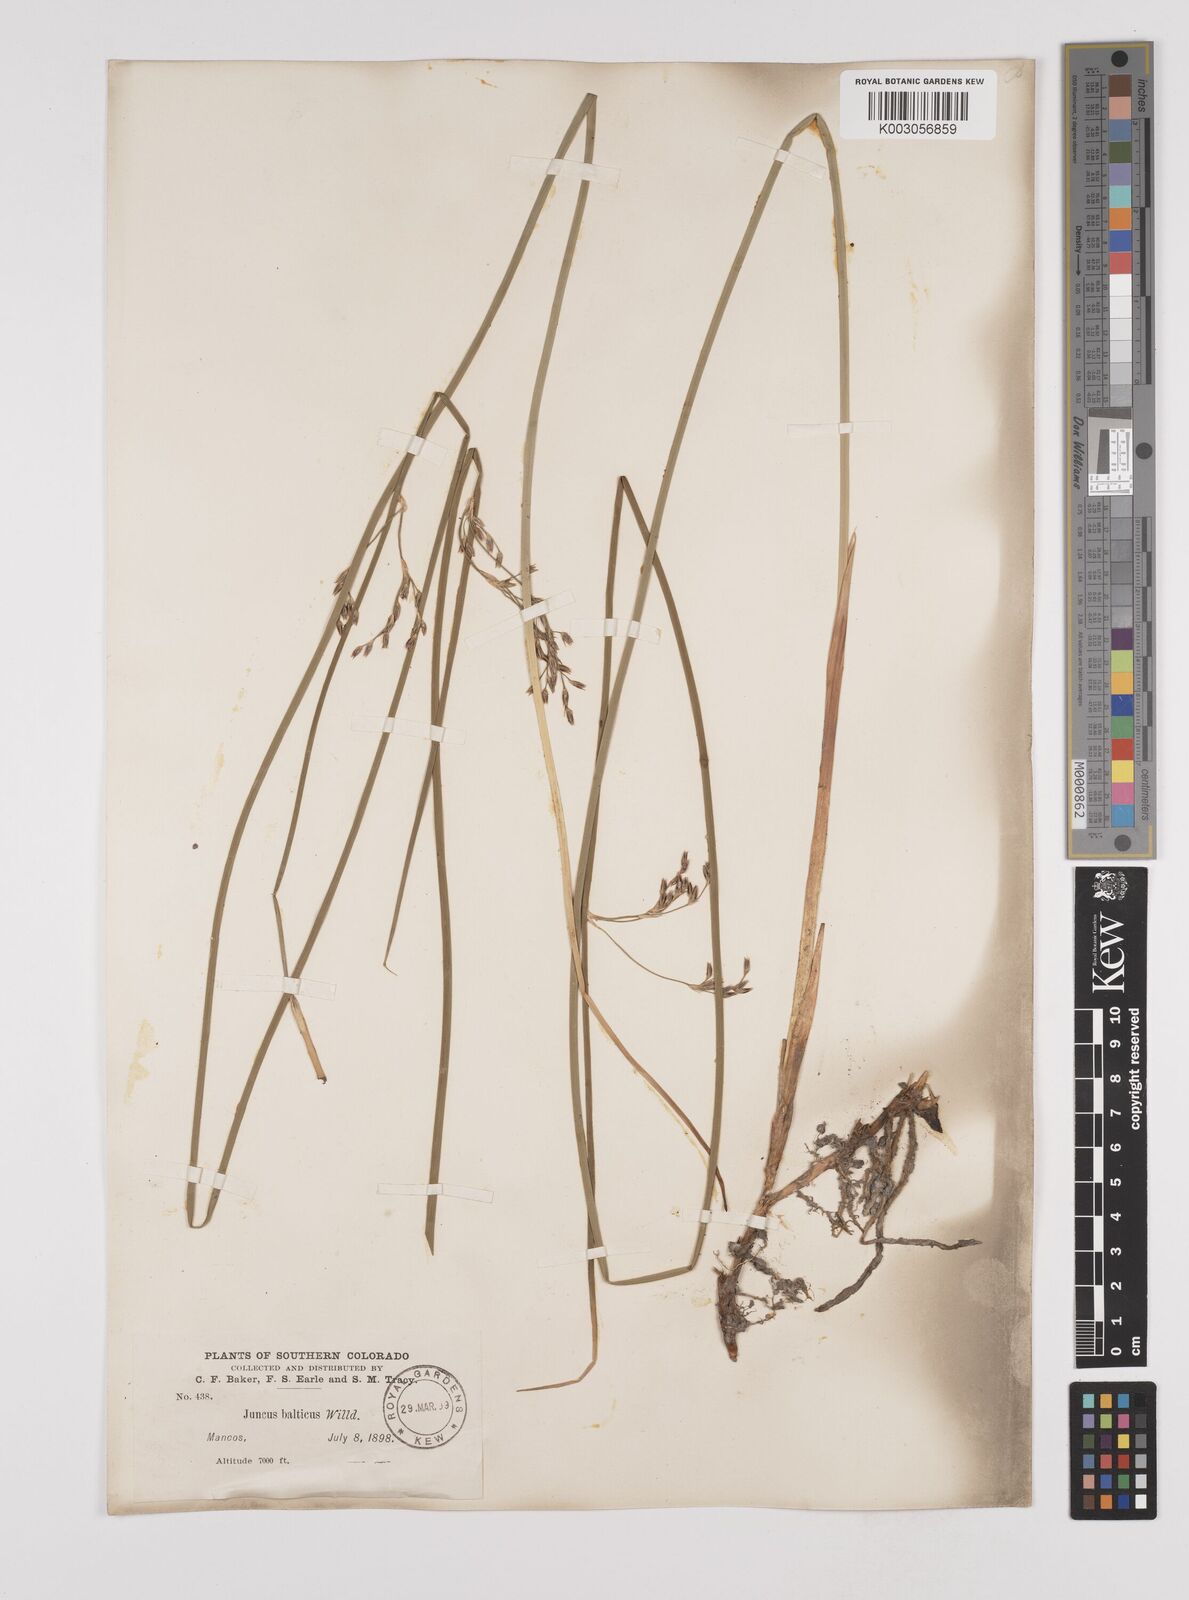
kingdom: Plantae
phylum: Tracheophyta
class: Liliopsida
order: Poales
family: Juncaceae
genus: Juncus
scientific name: Juncus balticus
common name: Baltic rush
